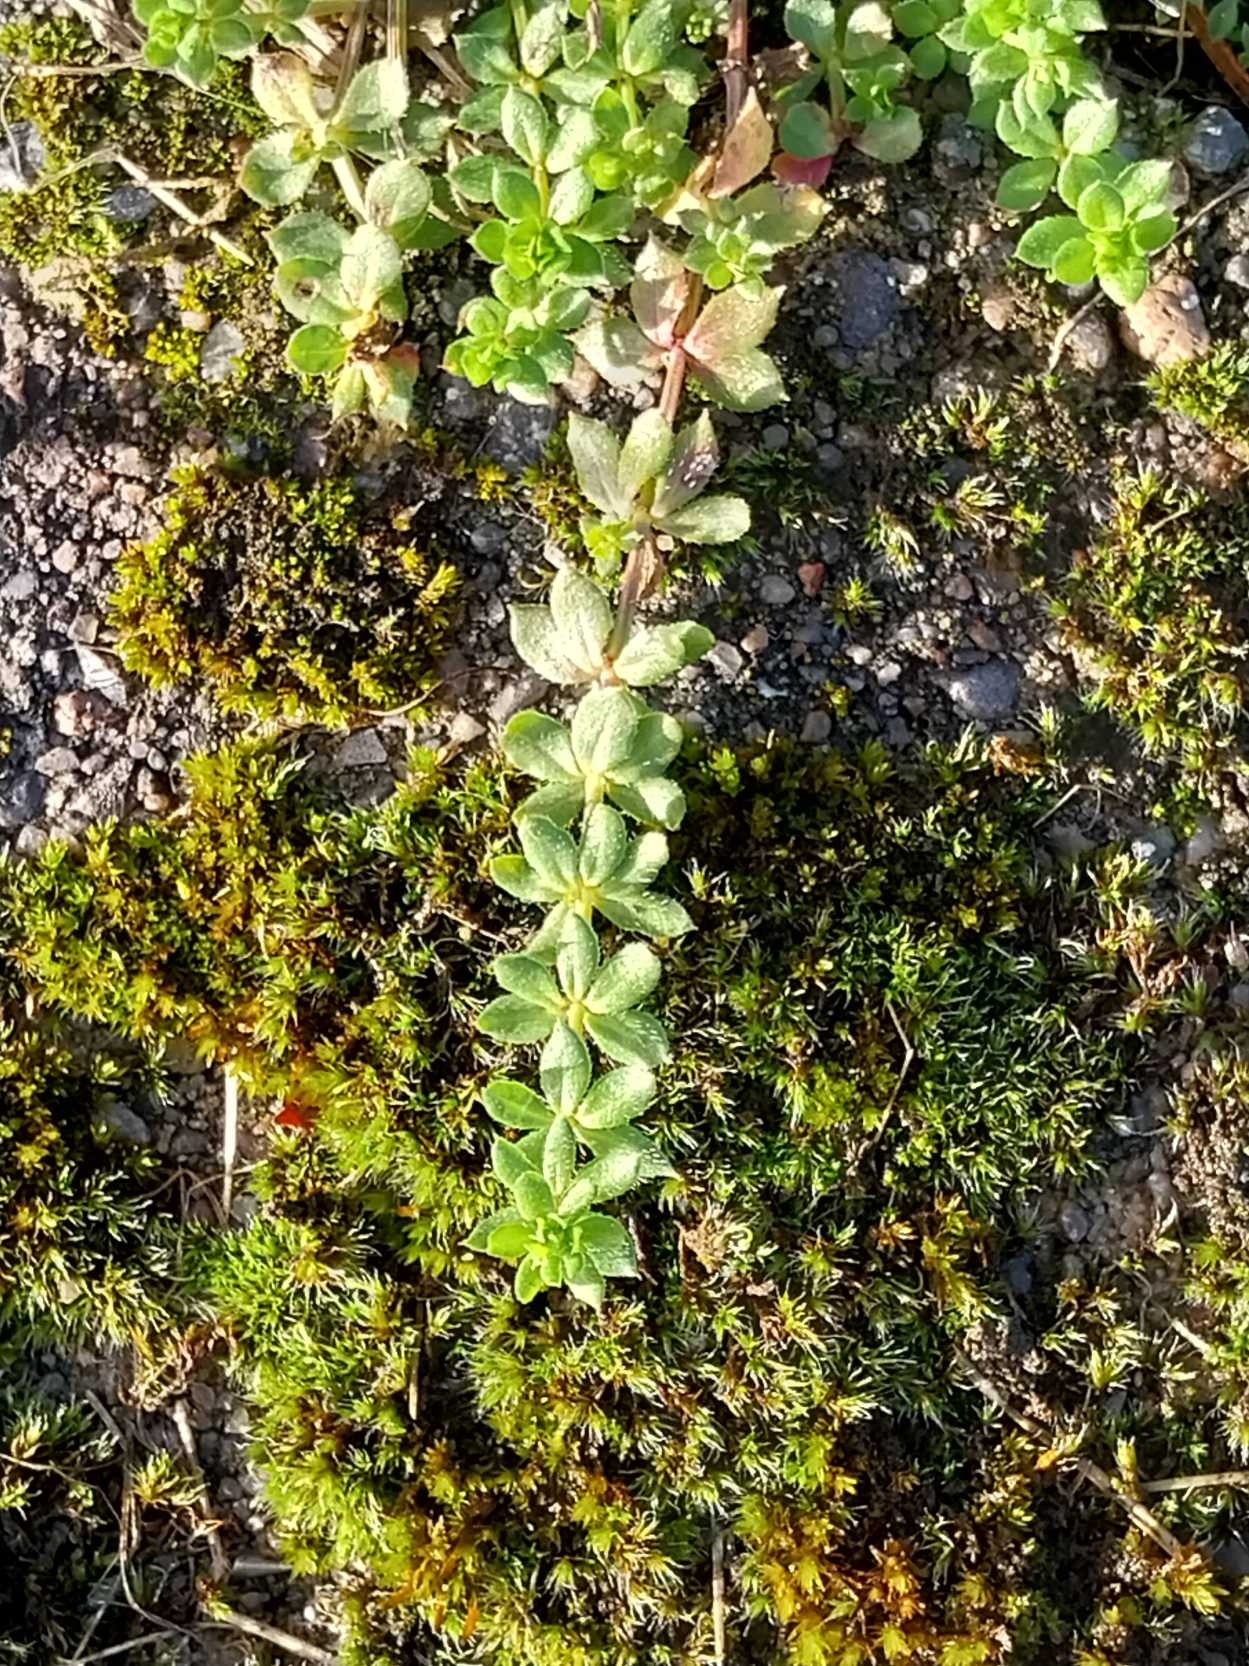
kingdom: Plantae
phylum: Tracheophyta
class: Magnoliopsida
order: Gentianales
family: Rubiaceae
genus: Sherardia
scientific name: Sherardia arvensis
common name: Blåstjerne
